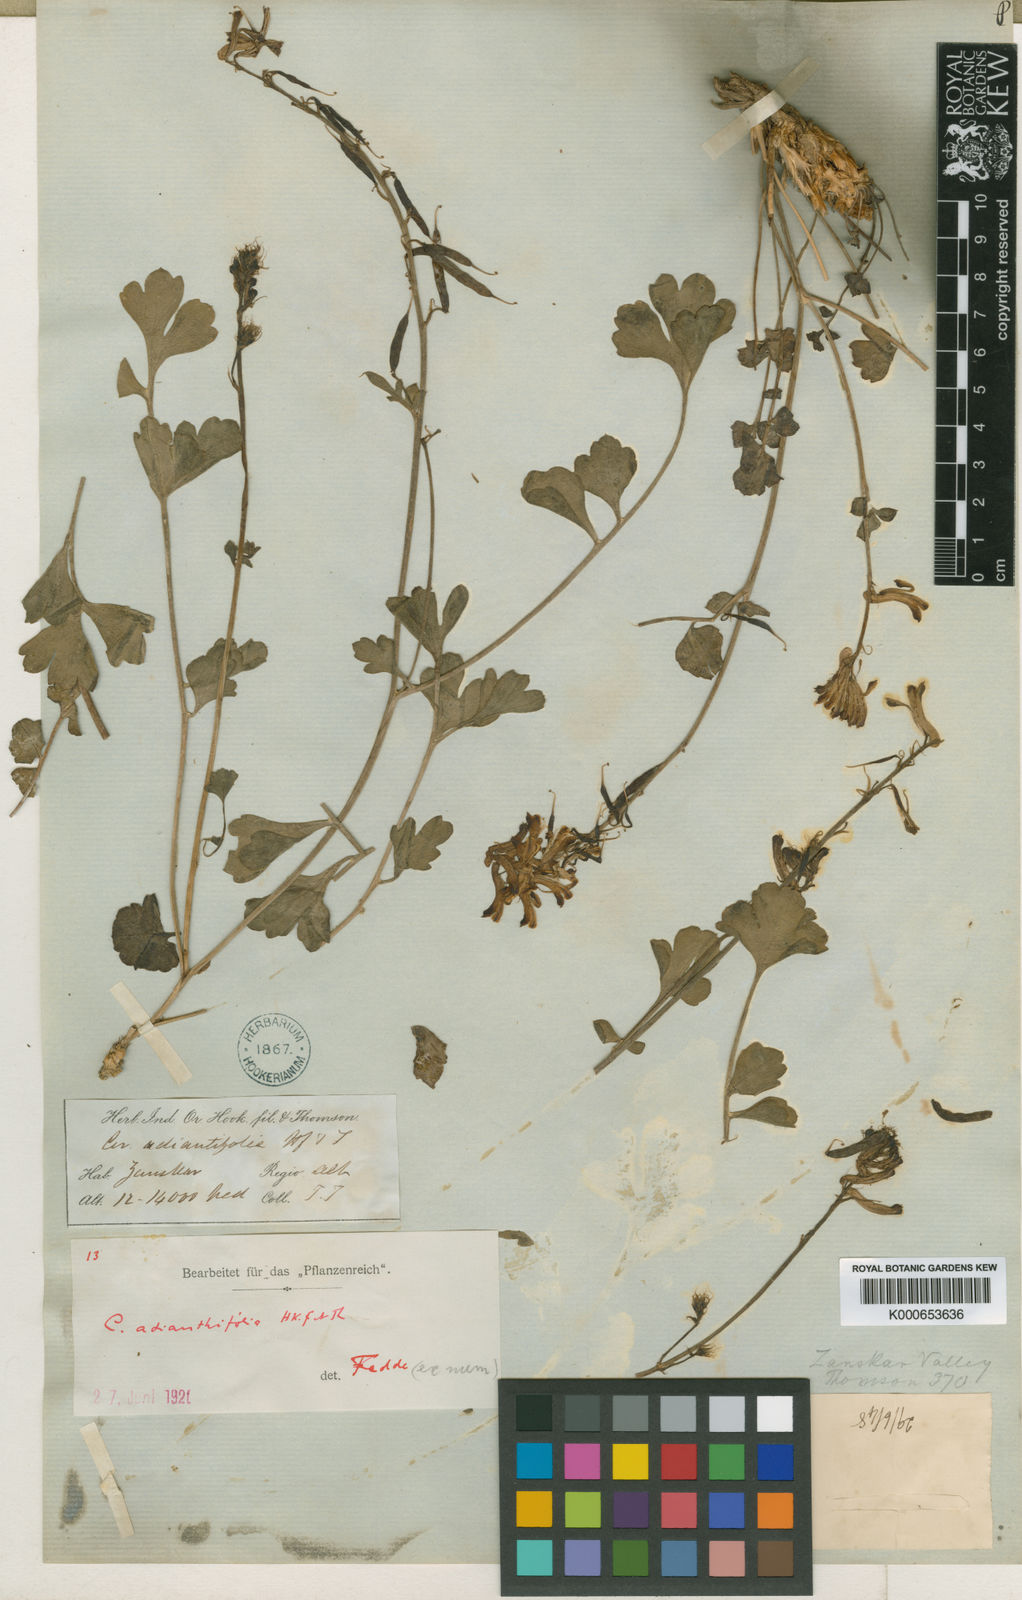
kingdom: Plantae
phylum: Tracheophyta
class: Magnoliopsida
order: Ranunculales
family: Papaveraceae
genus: Corydalis
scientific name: Corydalis adiantifolia
